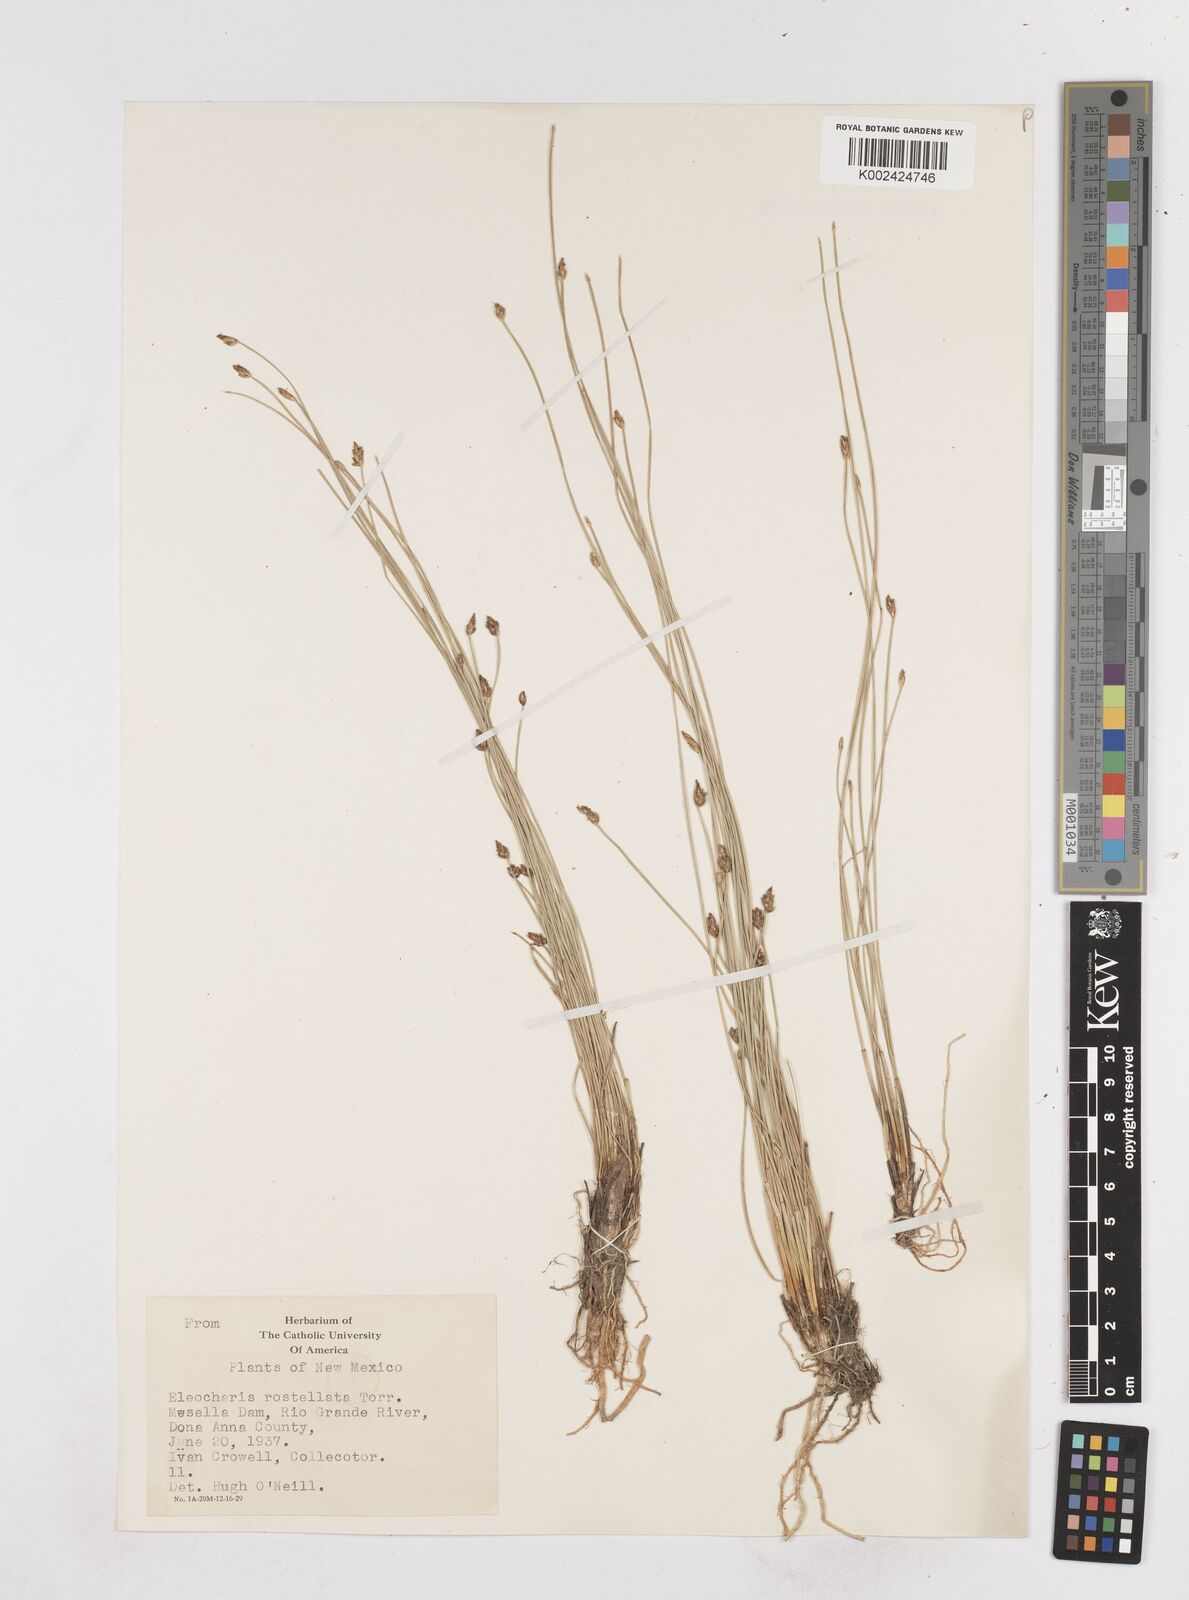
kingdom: Plantae
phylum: Tracheophyta
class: Liliopsida
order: Poales
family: Cyperaceae
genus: Eleocharis
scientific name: Eleocharis rostellata
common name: Walking sedge
